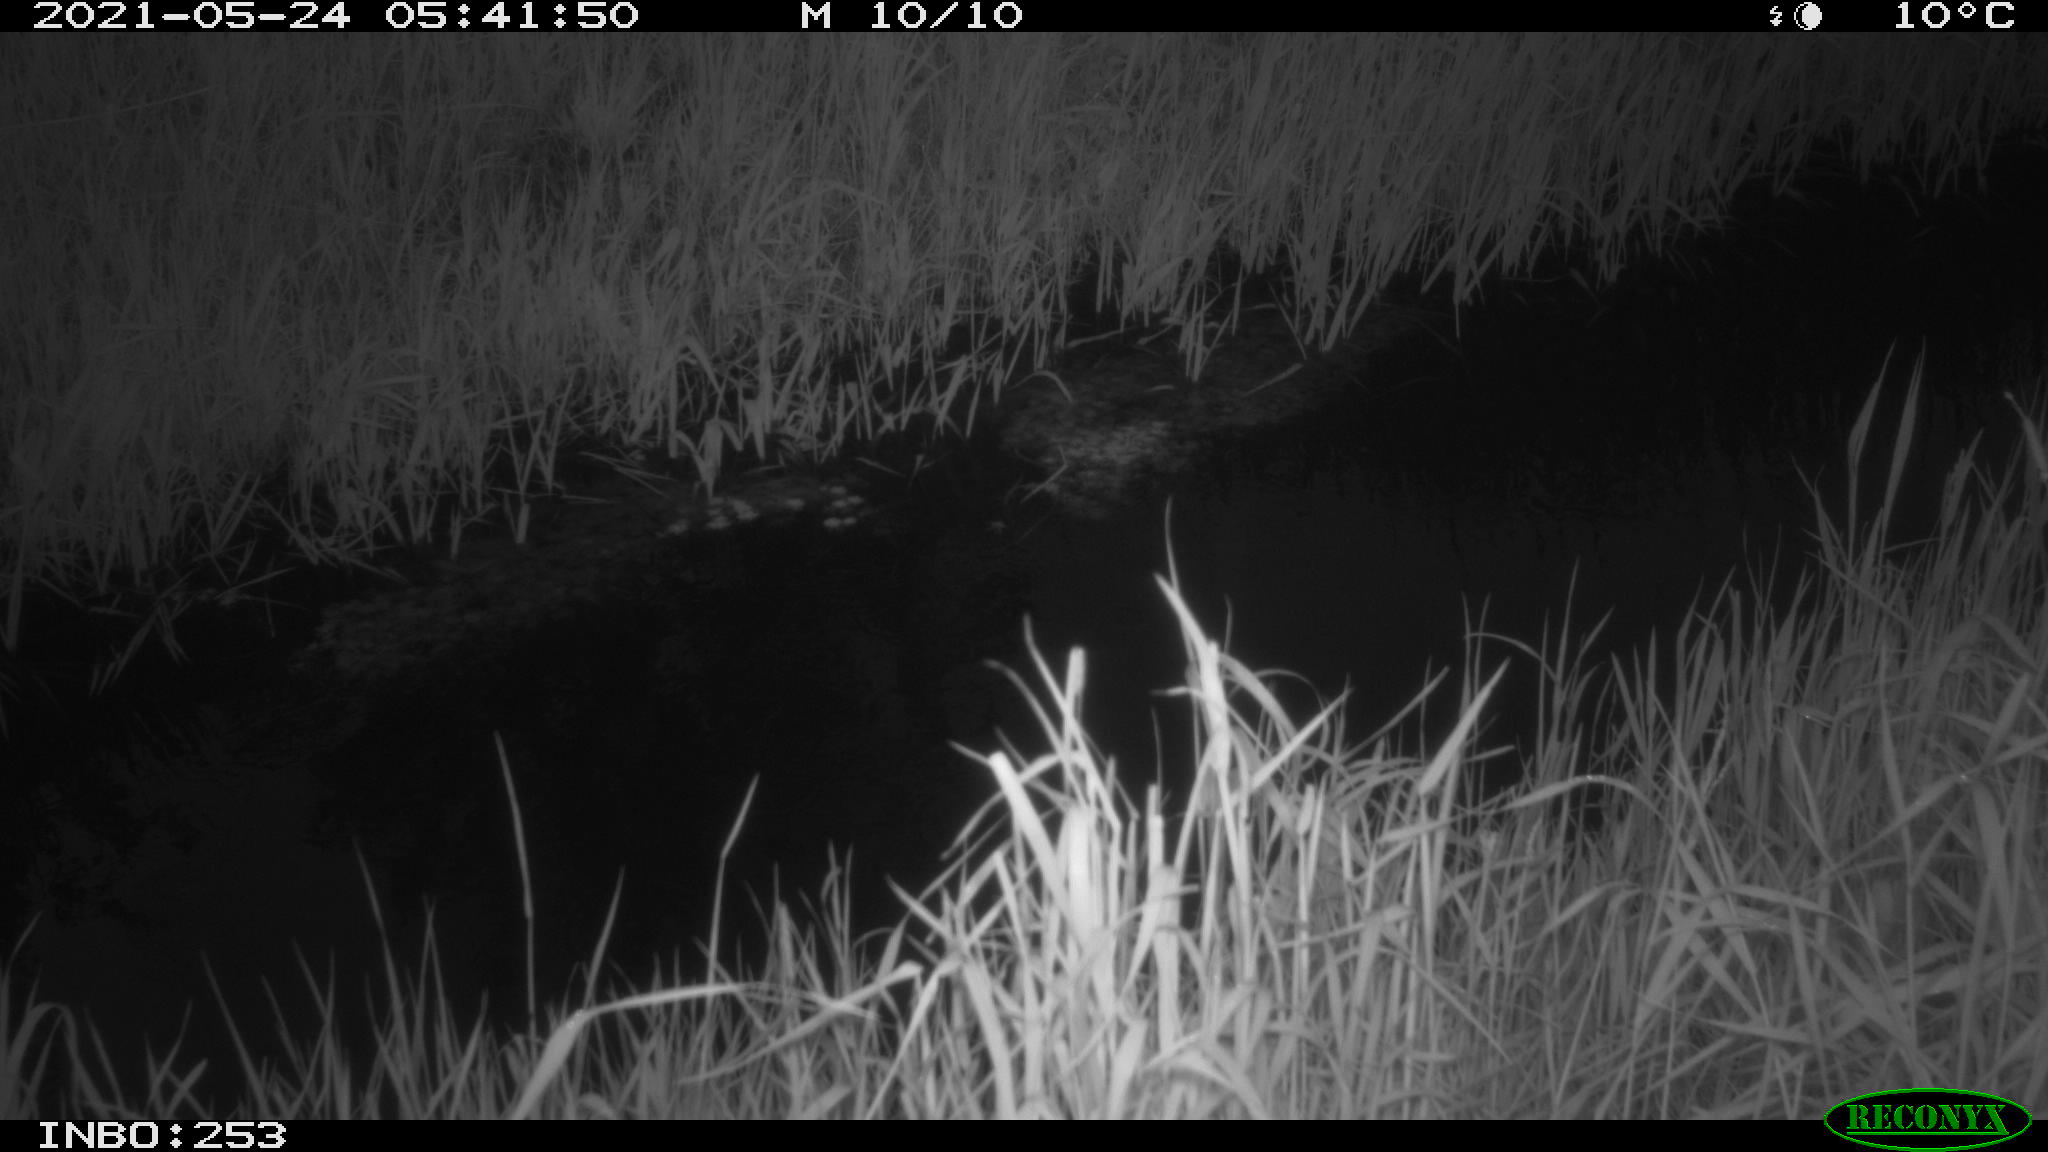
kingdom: Animalia
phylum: Chordata
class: Aves
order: Anseriformes
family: Anatidae
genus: Anas
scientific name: Anas platyrhynchos
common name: Mallard
